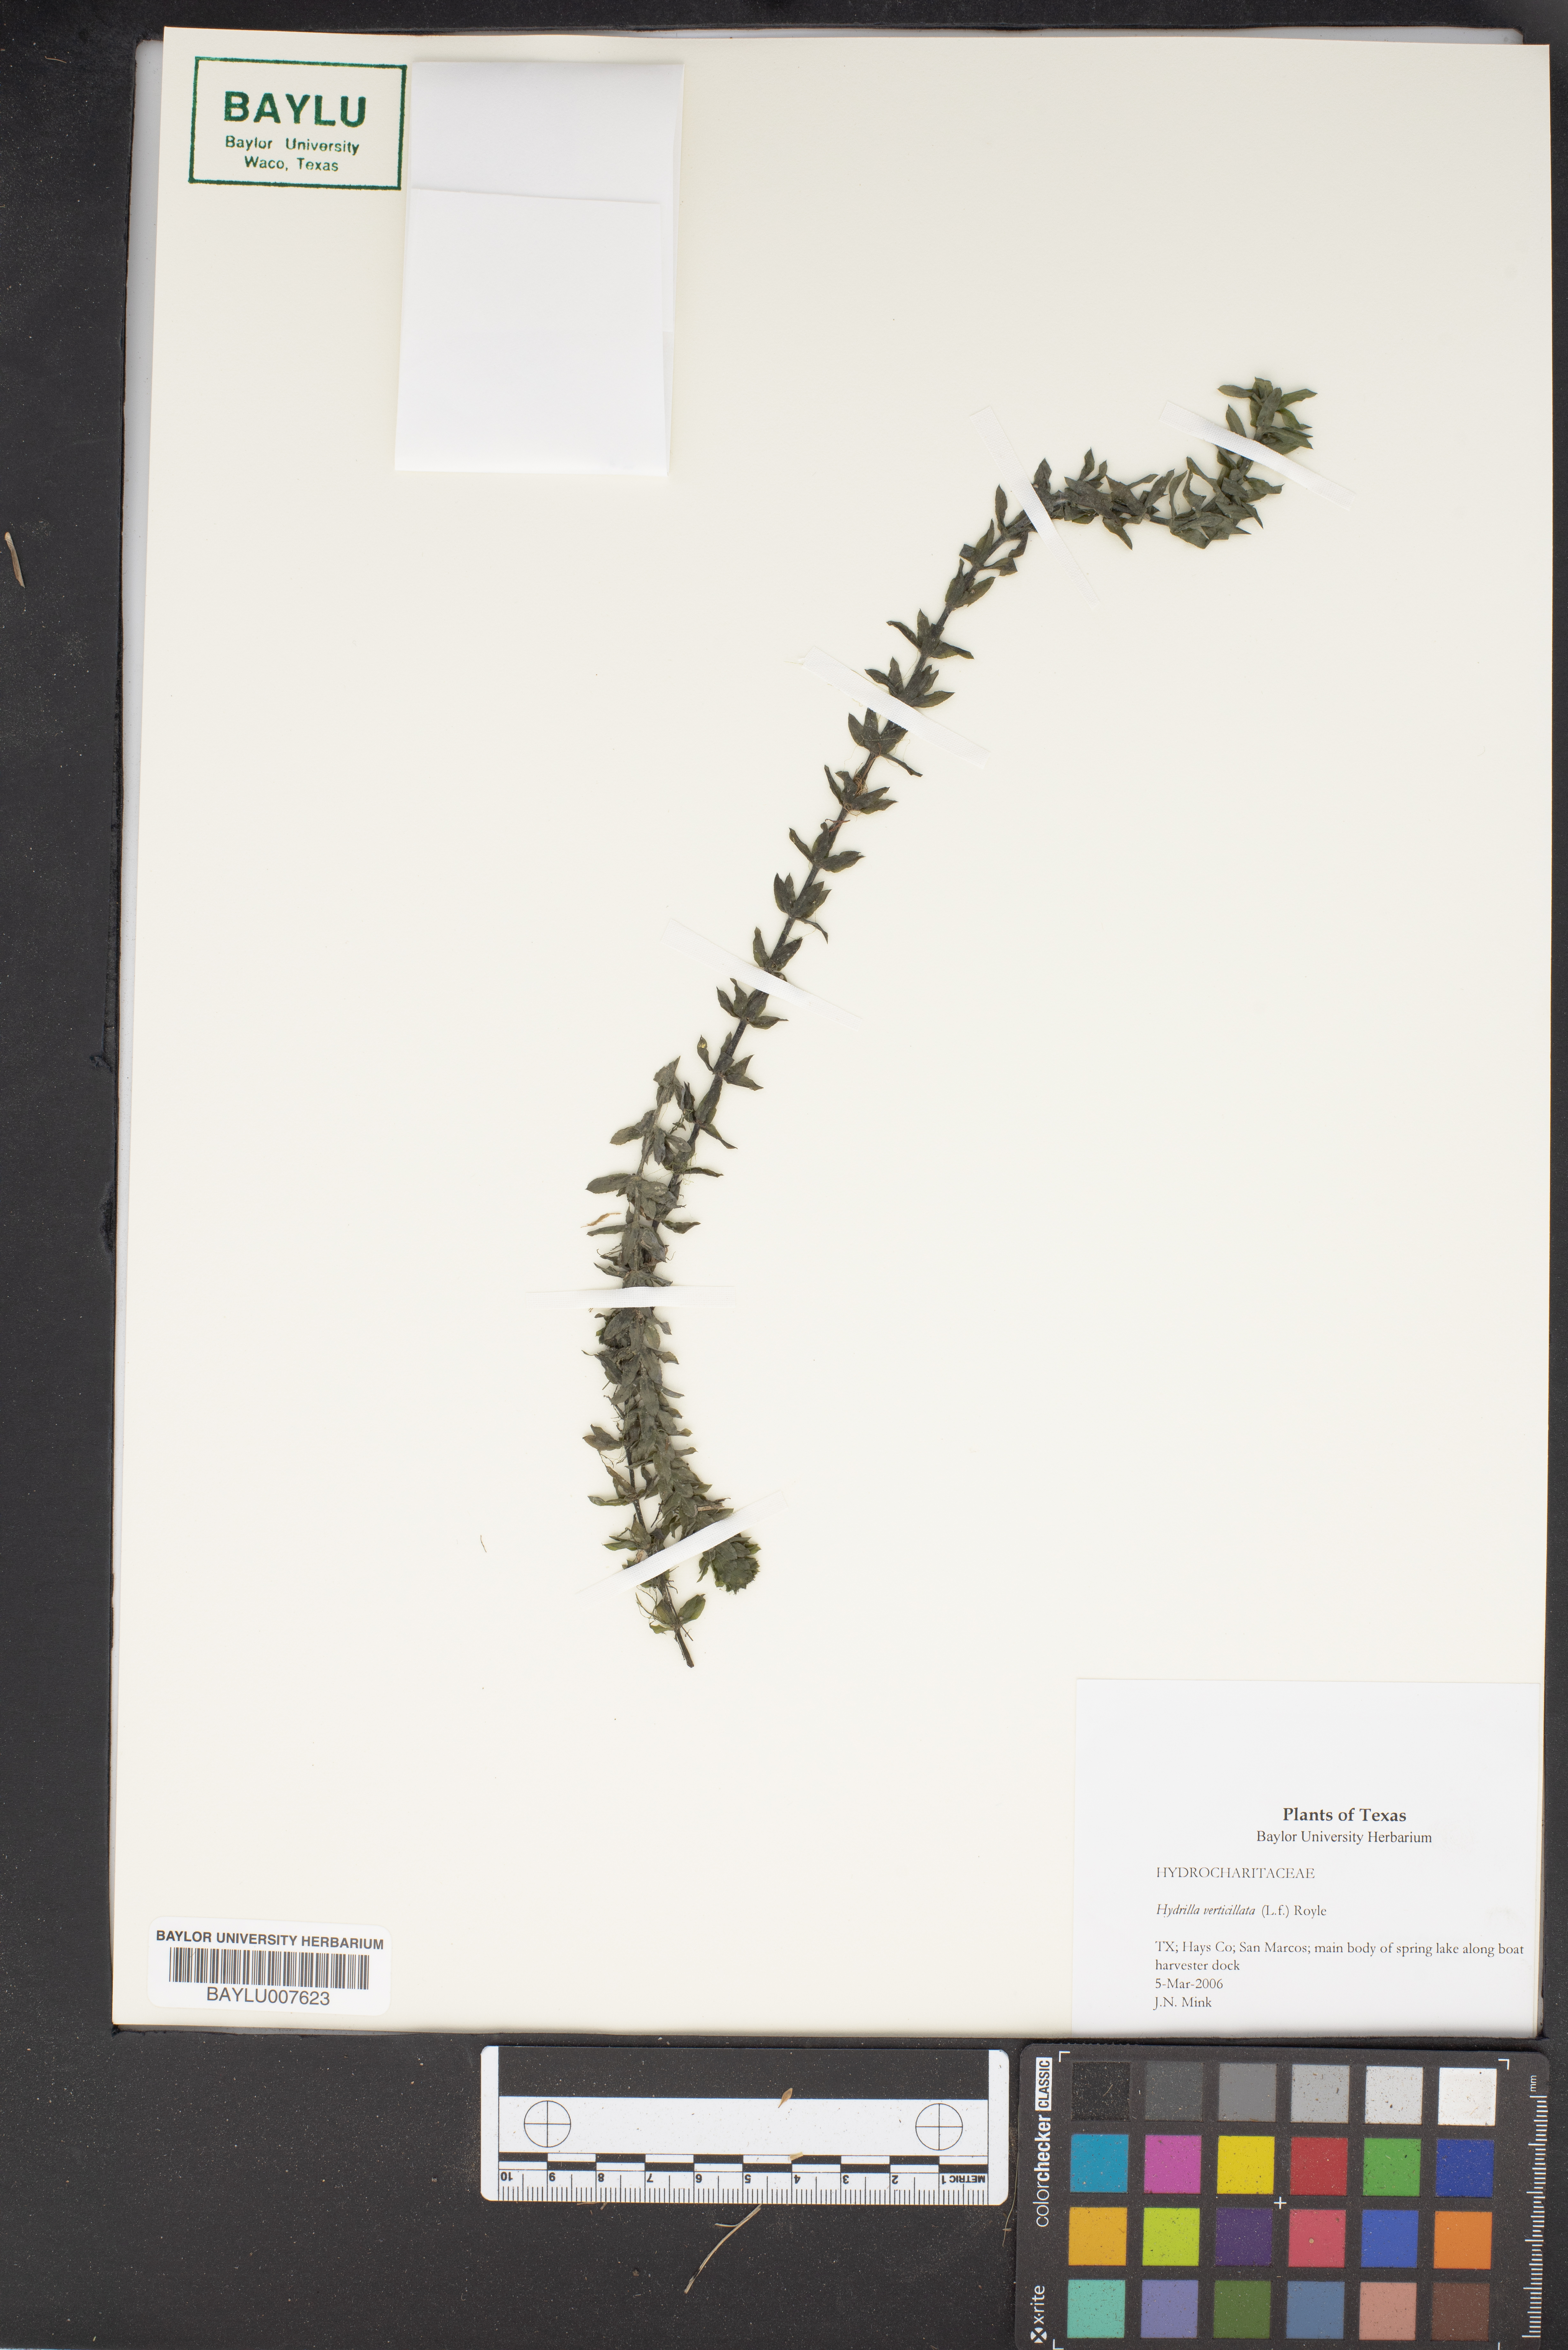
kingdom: Plantae
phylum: Tracheophyta
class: Liliopsida
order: Alismatales
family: Hydrocharitaceae
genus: Hydrilla
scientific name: Hydrilla verticillata
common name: Florida-elodea
